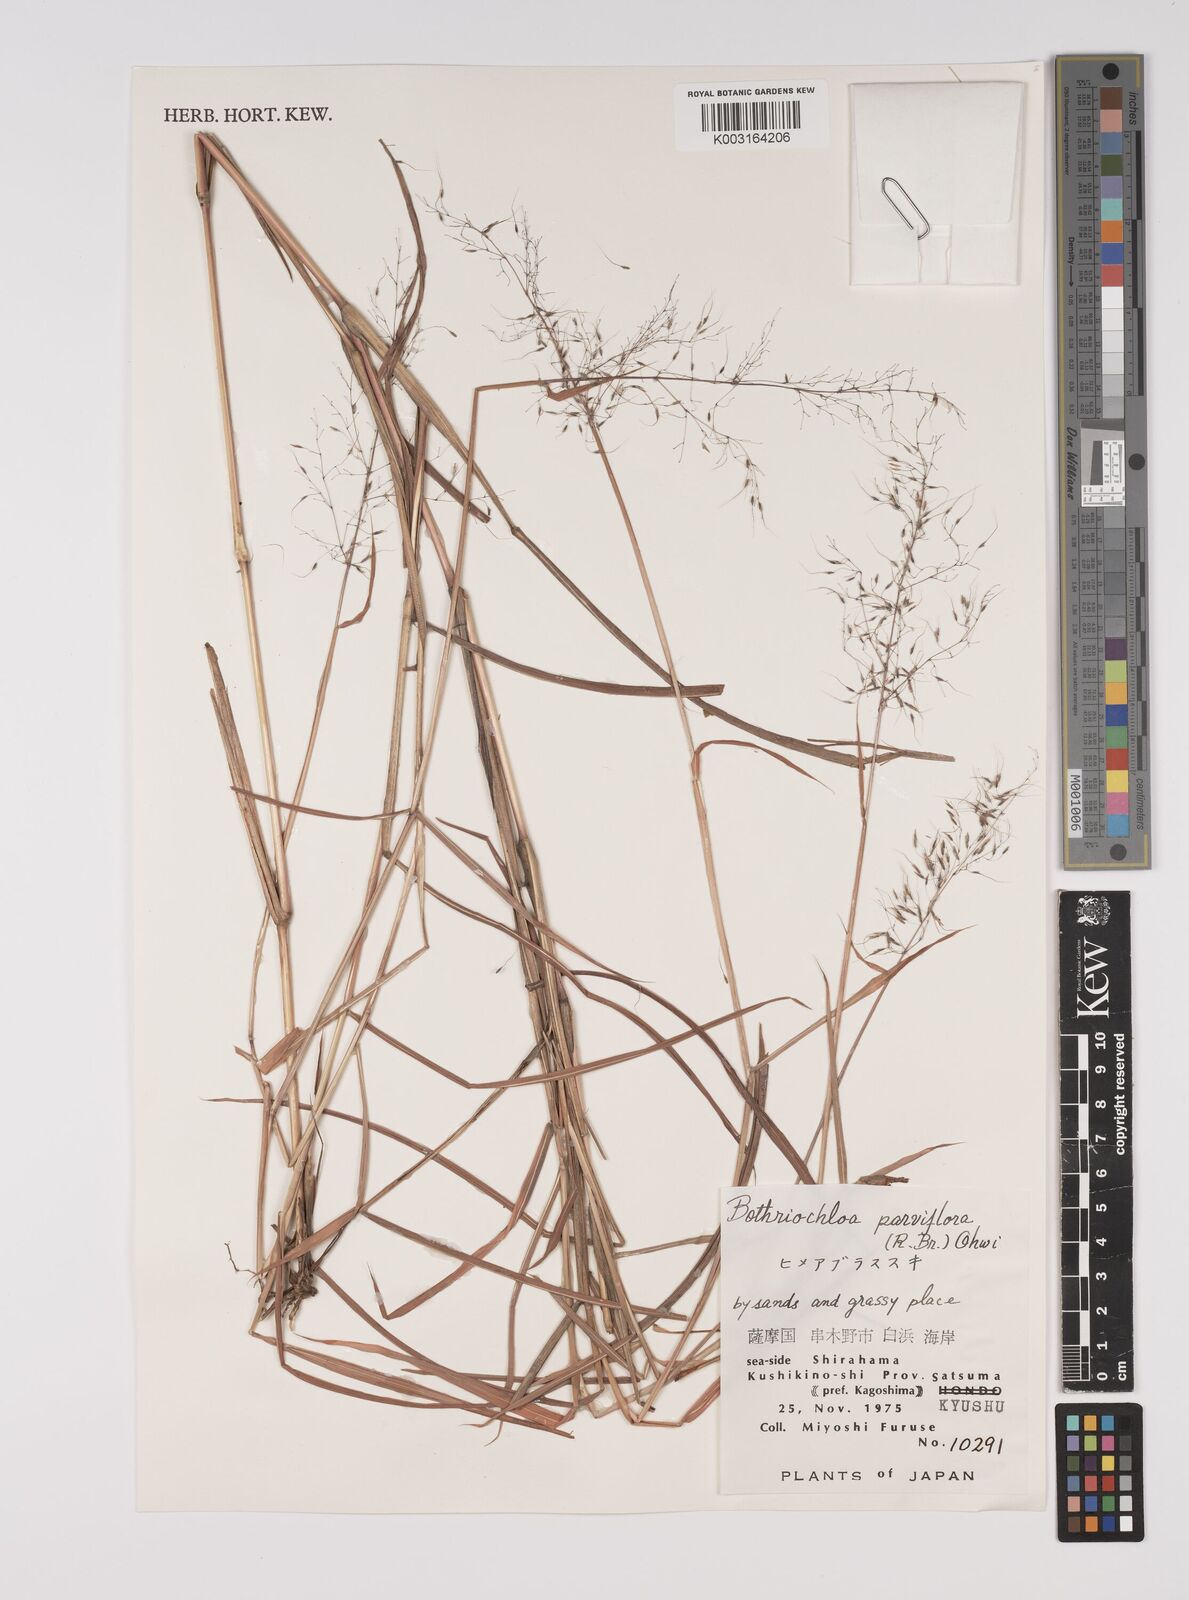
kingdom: Plantae
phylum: Tracheophyta
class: Liliopsida
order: Poales
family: Poaceae
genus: Capillipedium
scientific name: Capillipedium parviflorum
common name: Golden-beard
